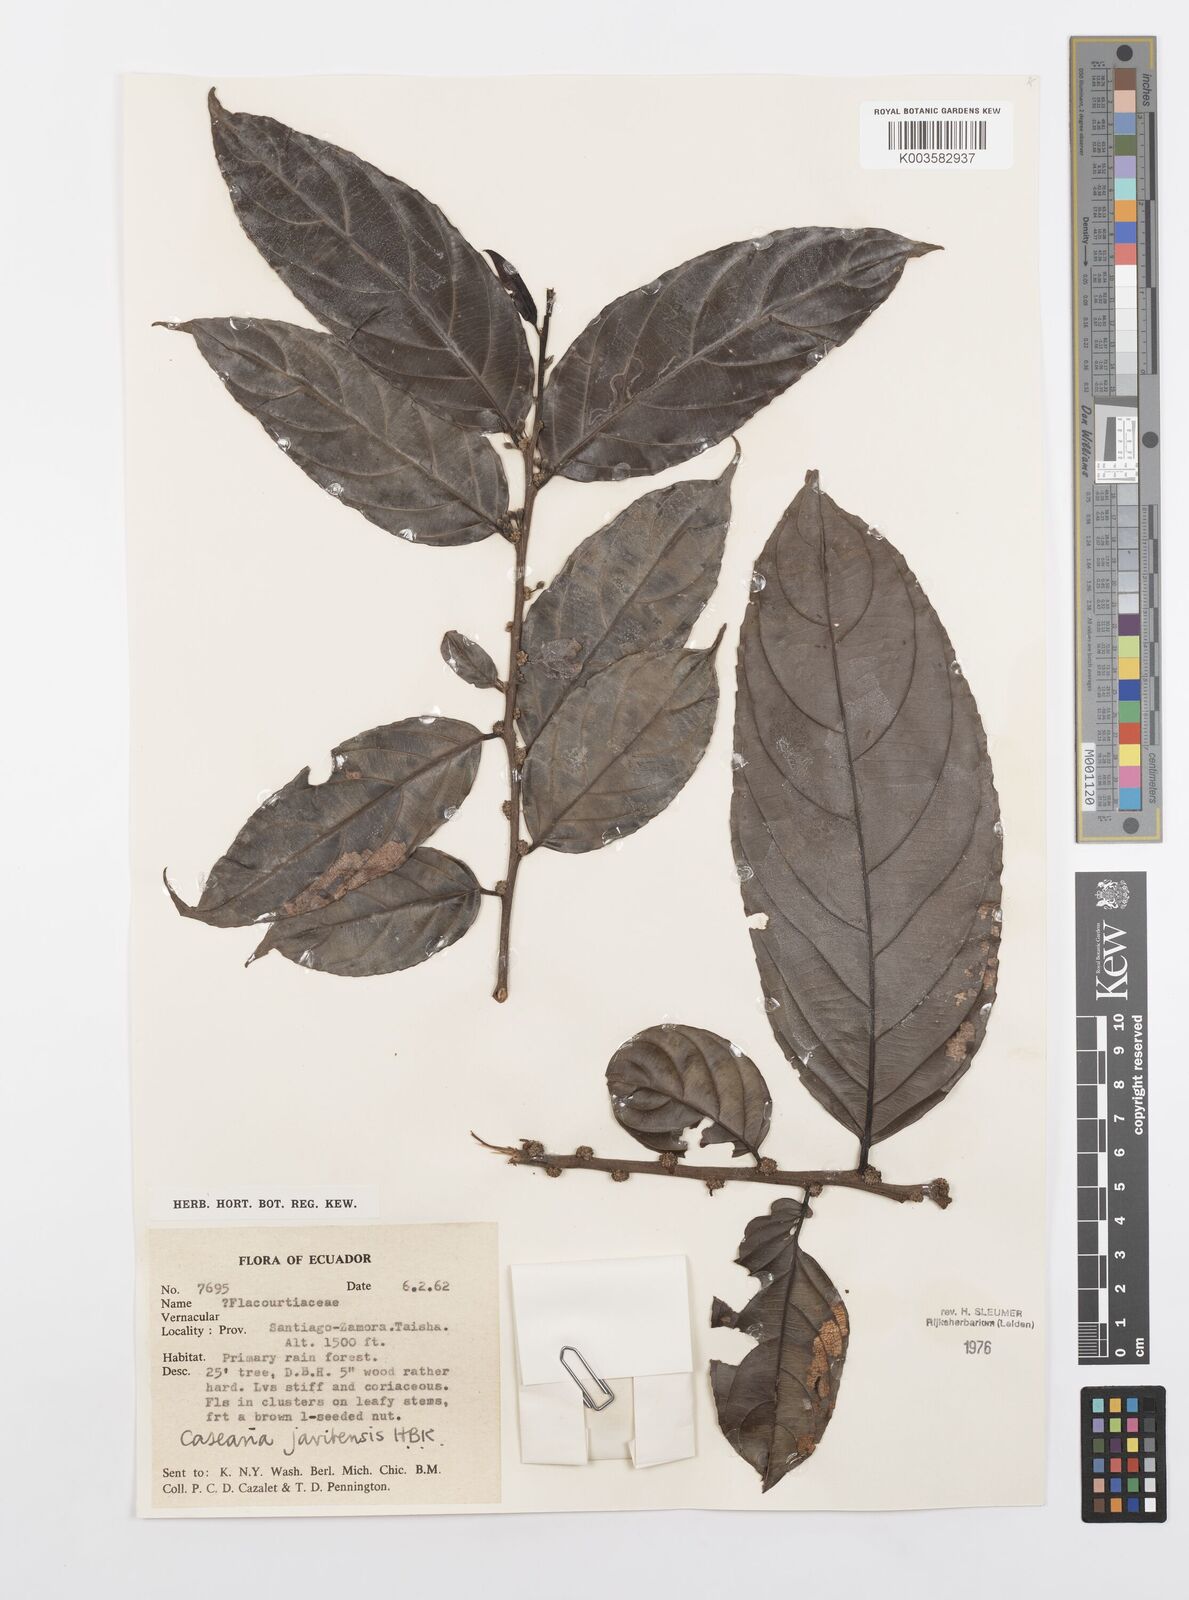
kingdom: Plantae
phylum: Tracheophyta
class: Magnoliopsida
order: Malpighiales
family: Salicaceae
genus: Piparea
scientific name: Piparea multiflora
